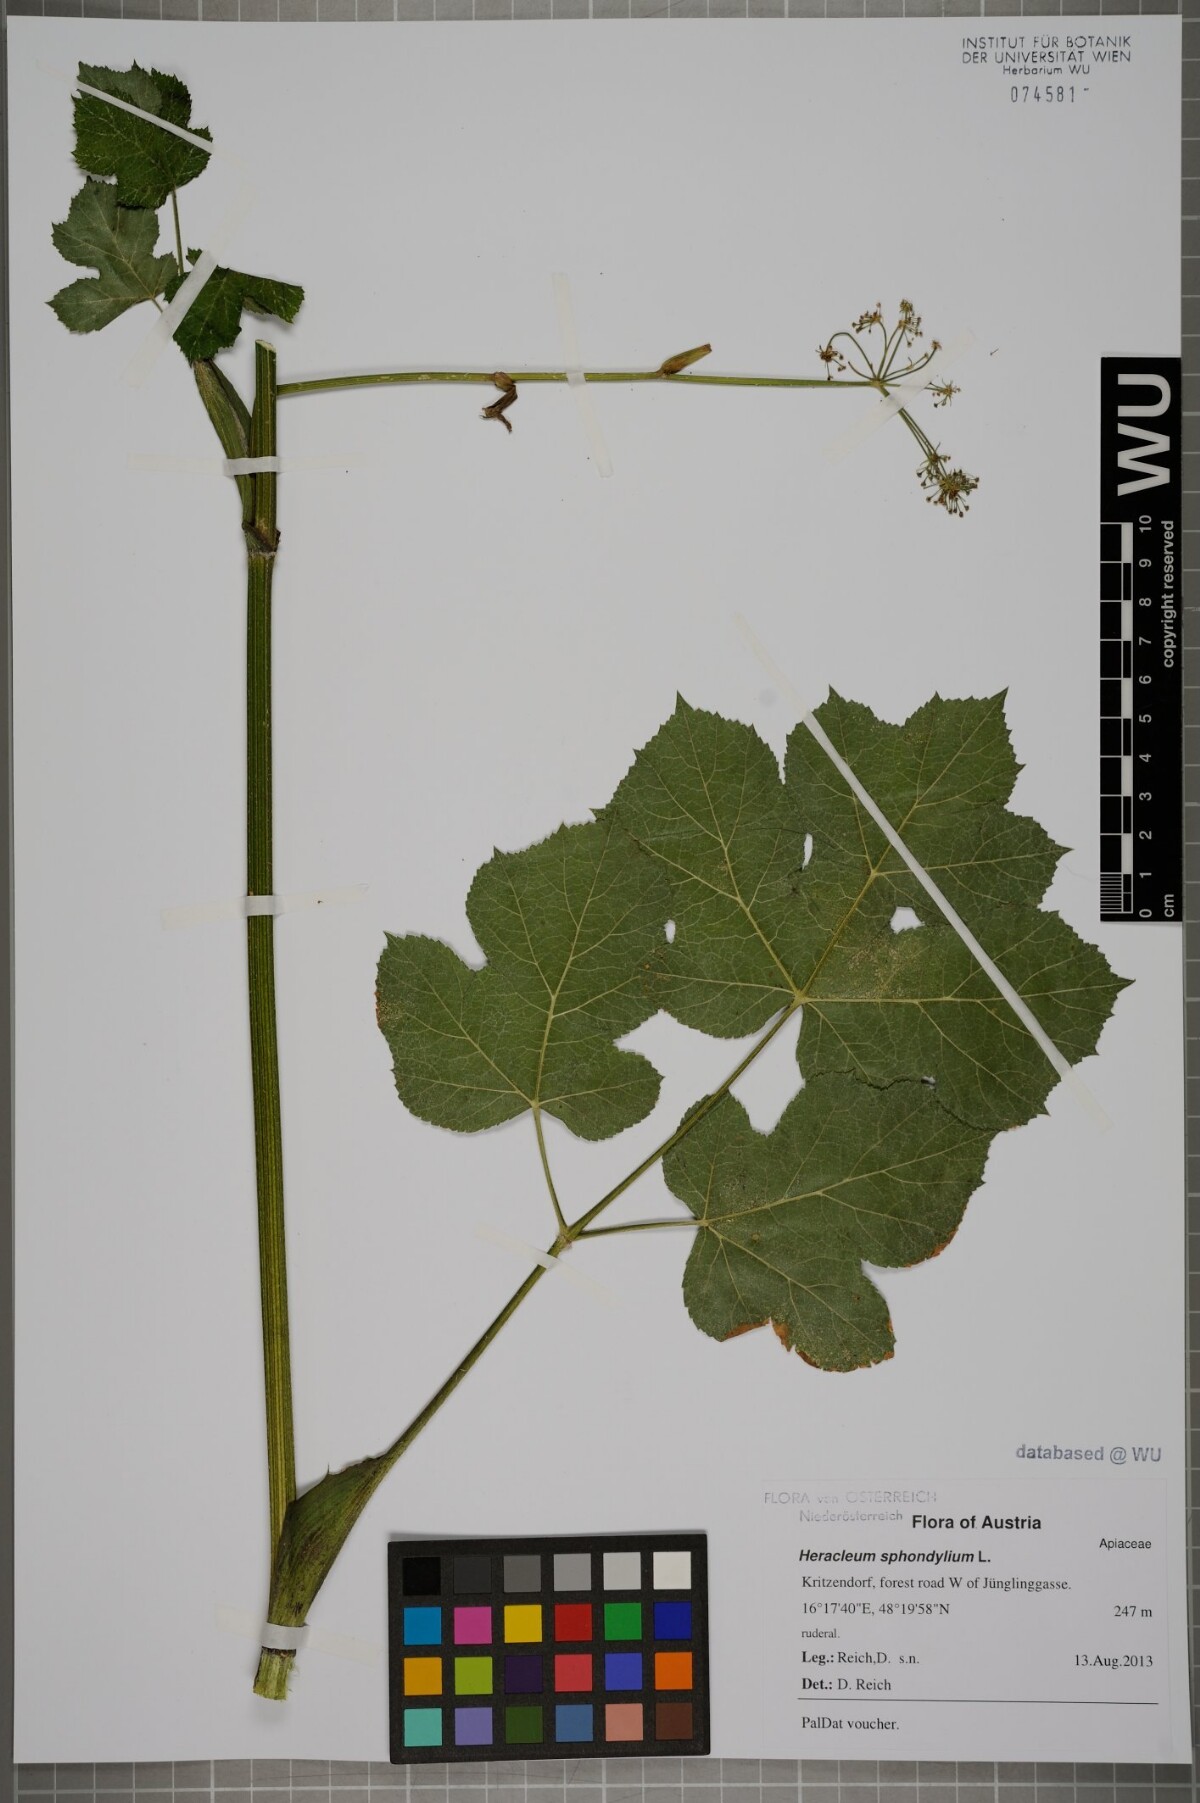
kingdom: Plantae
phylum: Tracheophyta
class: Magnoliopsida
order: Apiales
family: Apiaceae
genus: Heracleum
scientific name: Heracleum sphondylium
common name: Hogweed
